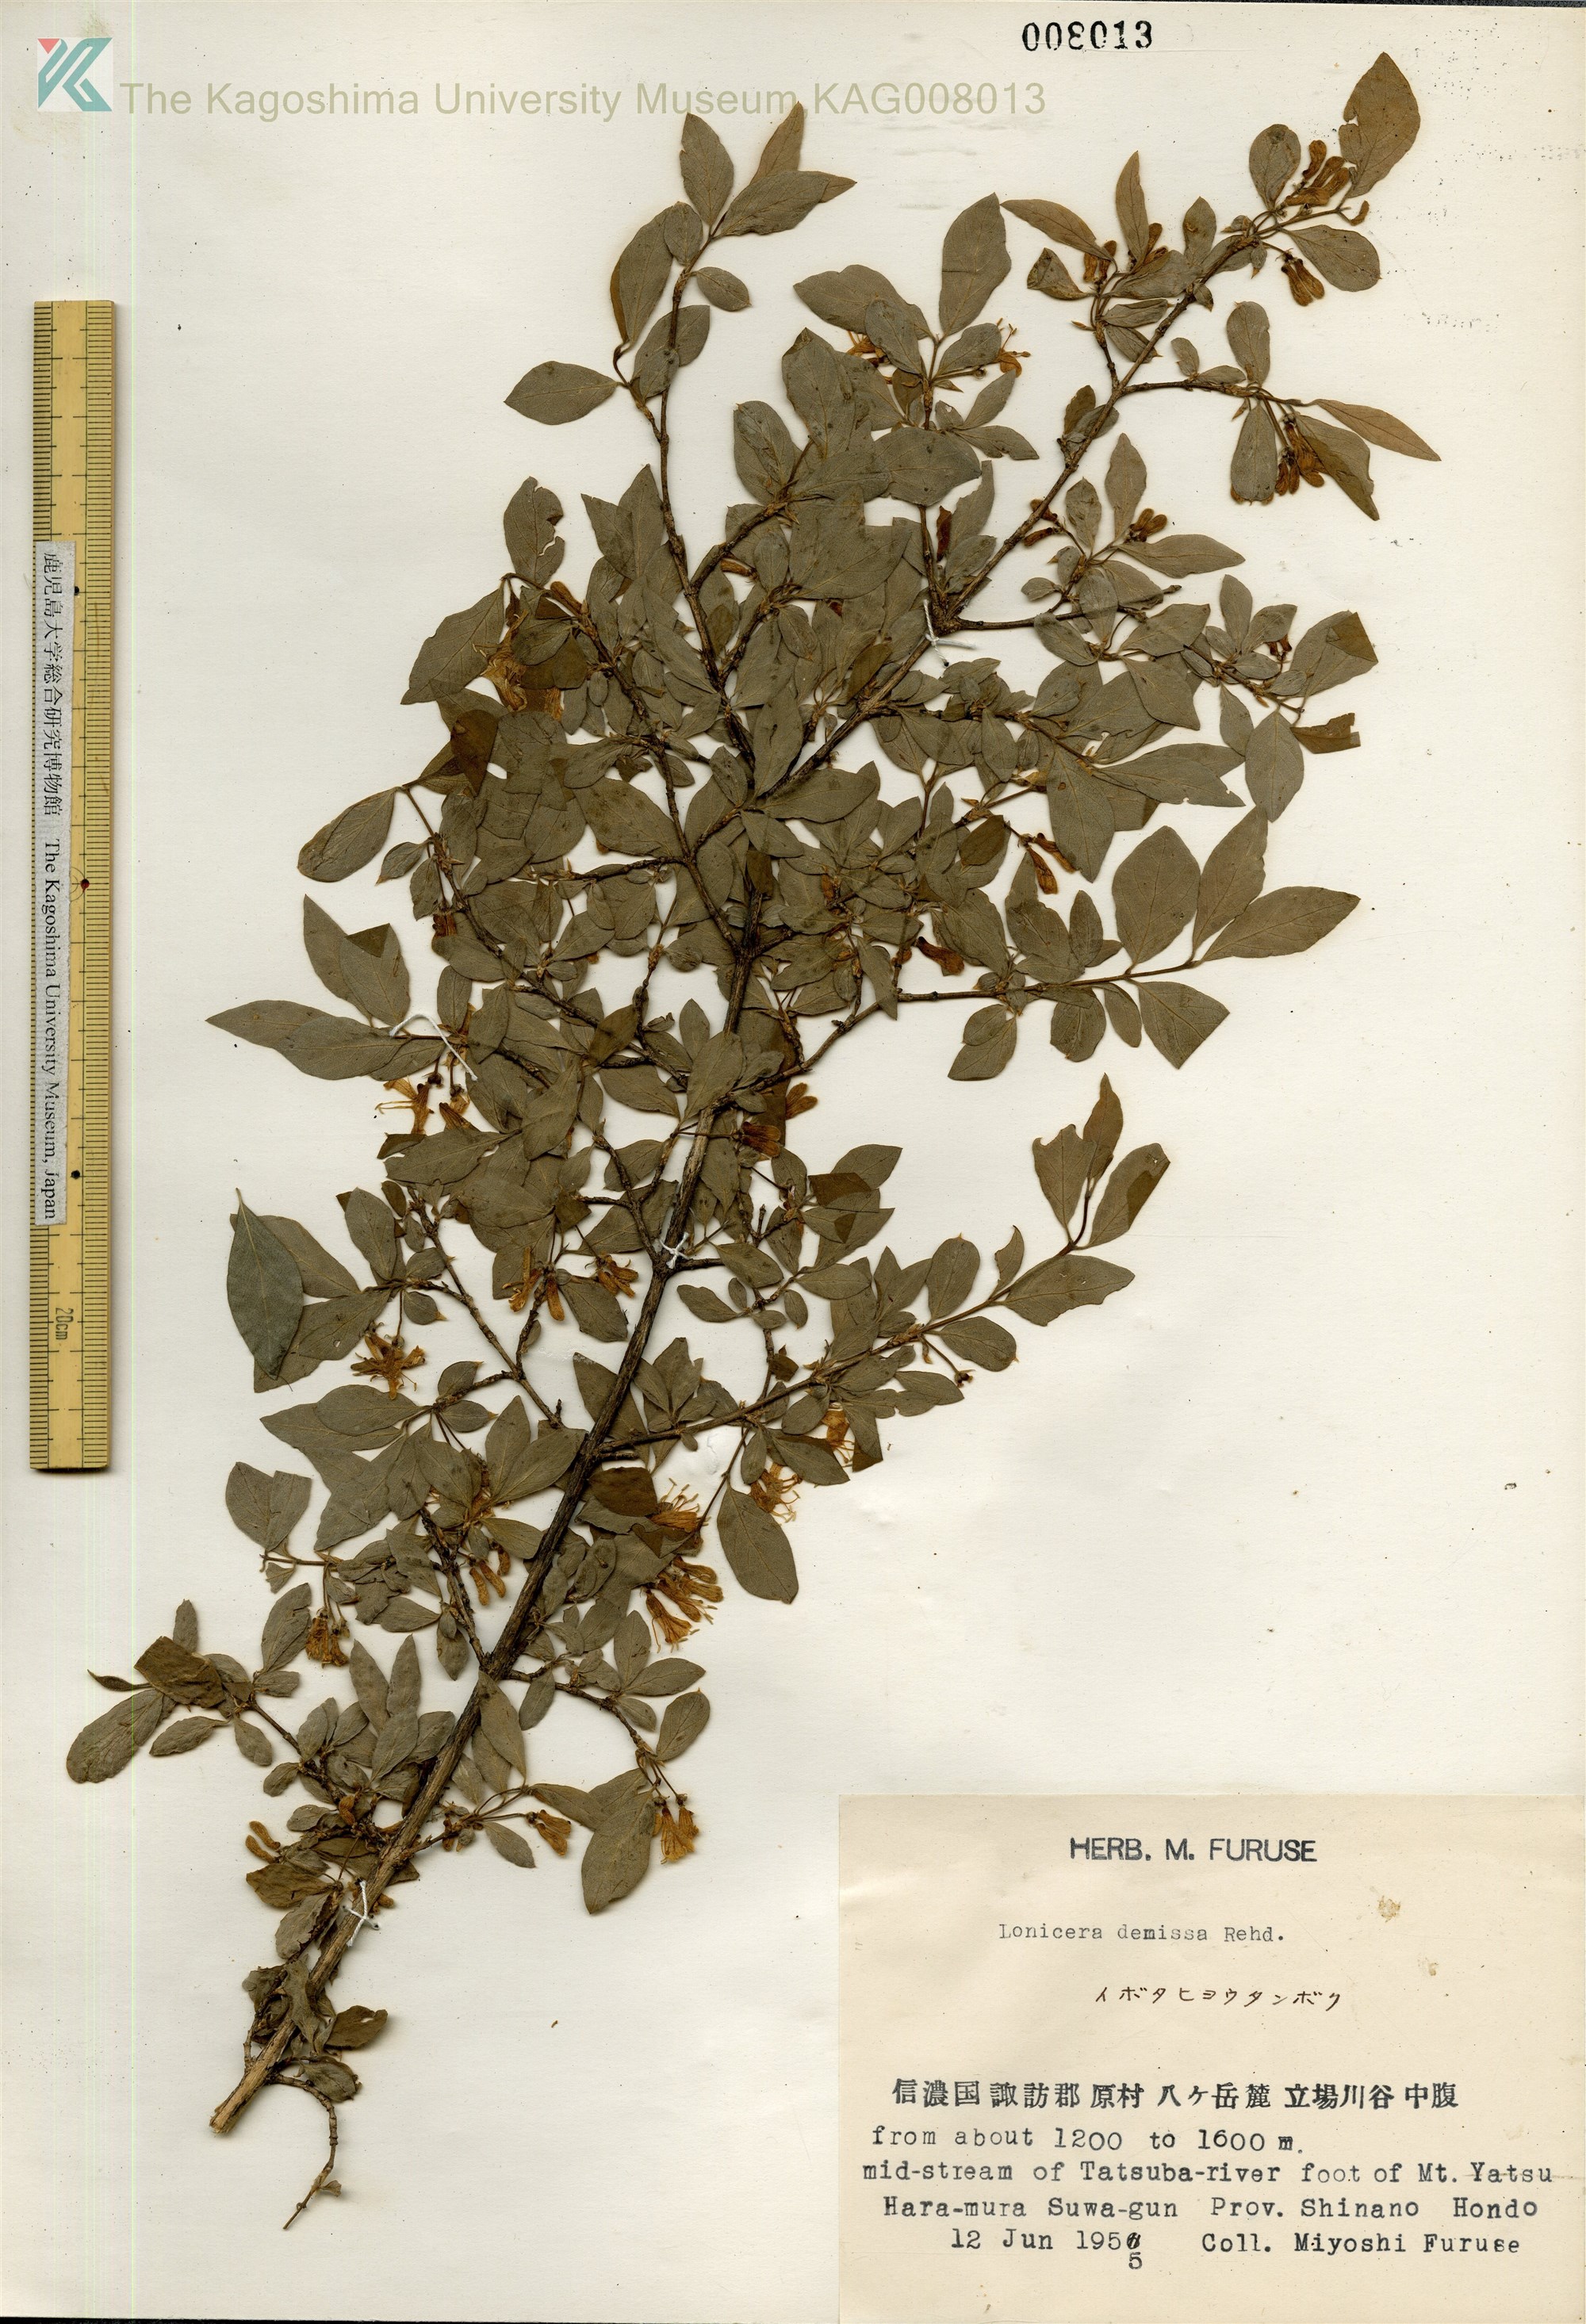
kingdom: Plantae
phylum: Tracheophyta
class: Magnoliopsida
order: Dipsacales
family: Caprifoliaceae
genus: Lonicera
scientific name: Lonicera demissa
